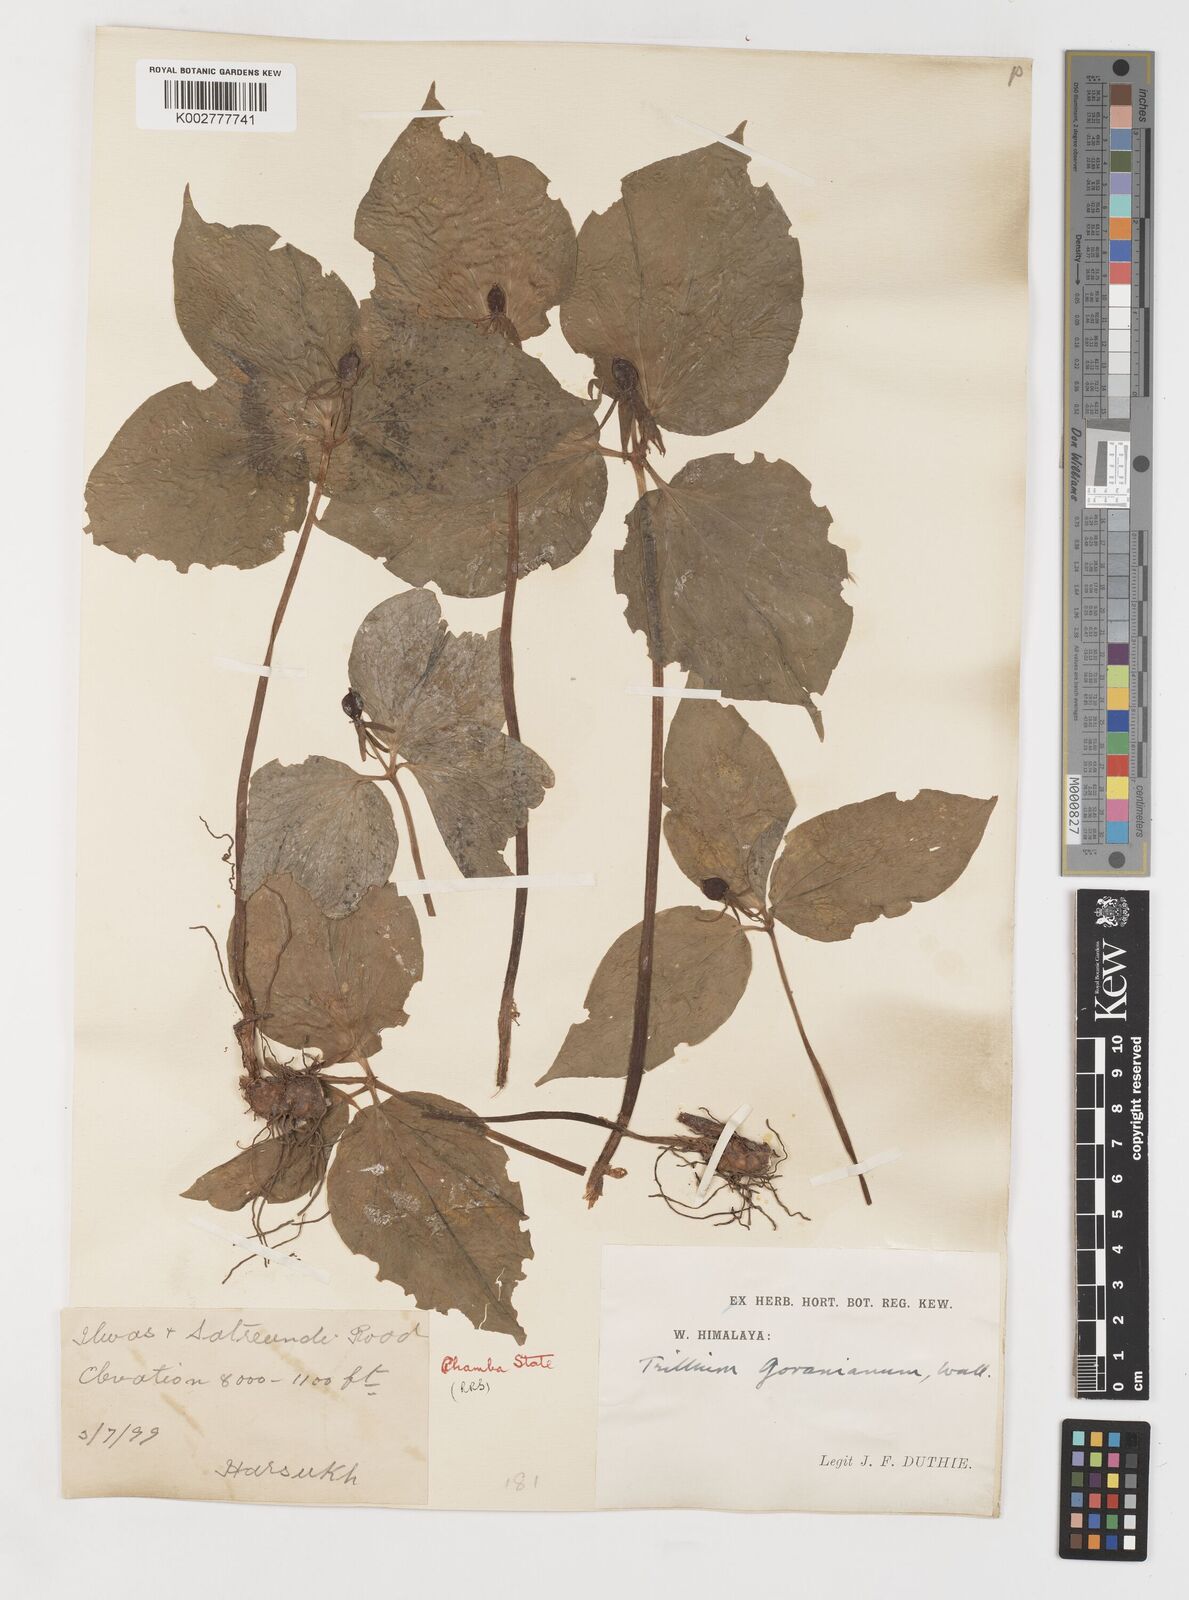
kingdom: Plantae
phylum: Tracheophyta
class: Liliopsida
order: Liliales
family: Melanthiaceae
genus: Trillium
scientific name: Trillium govanianum
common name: Himalayan trillium
